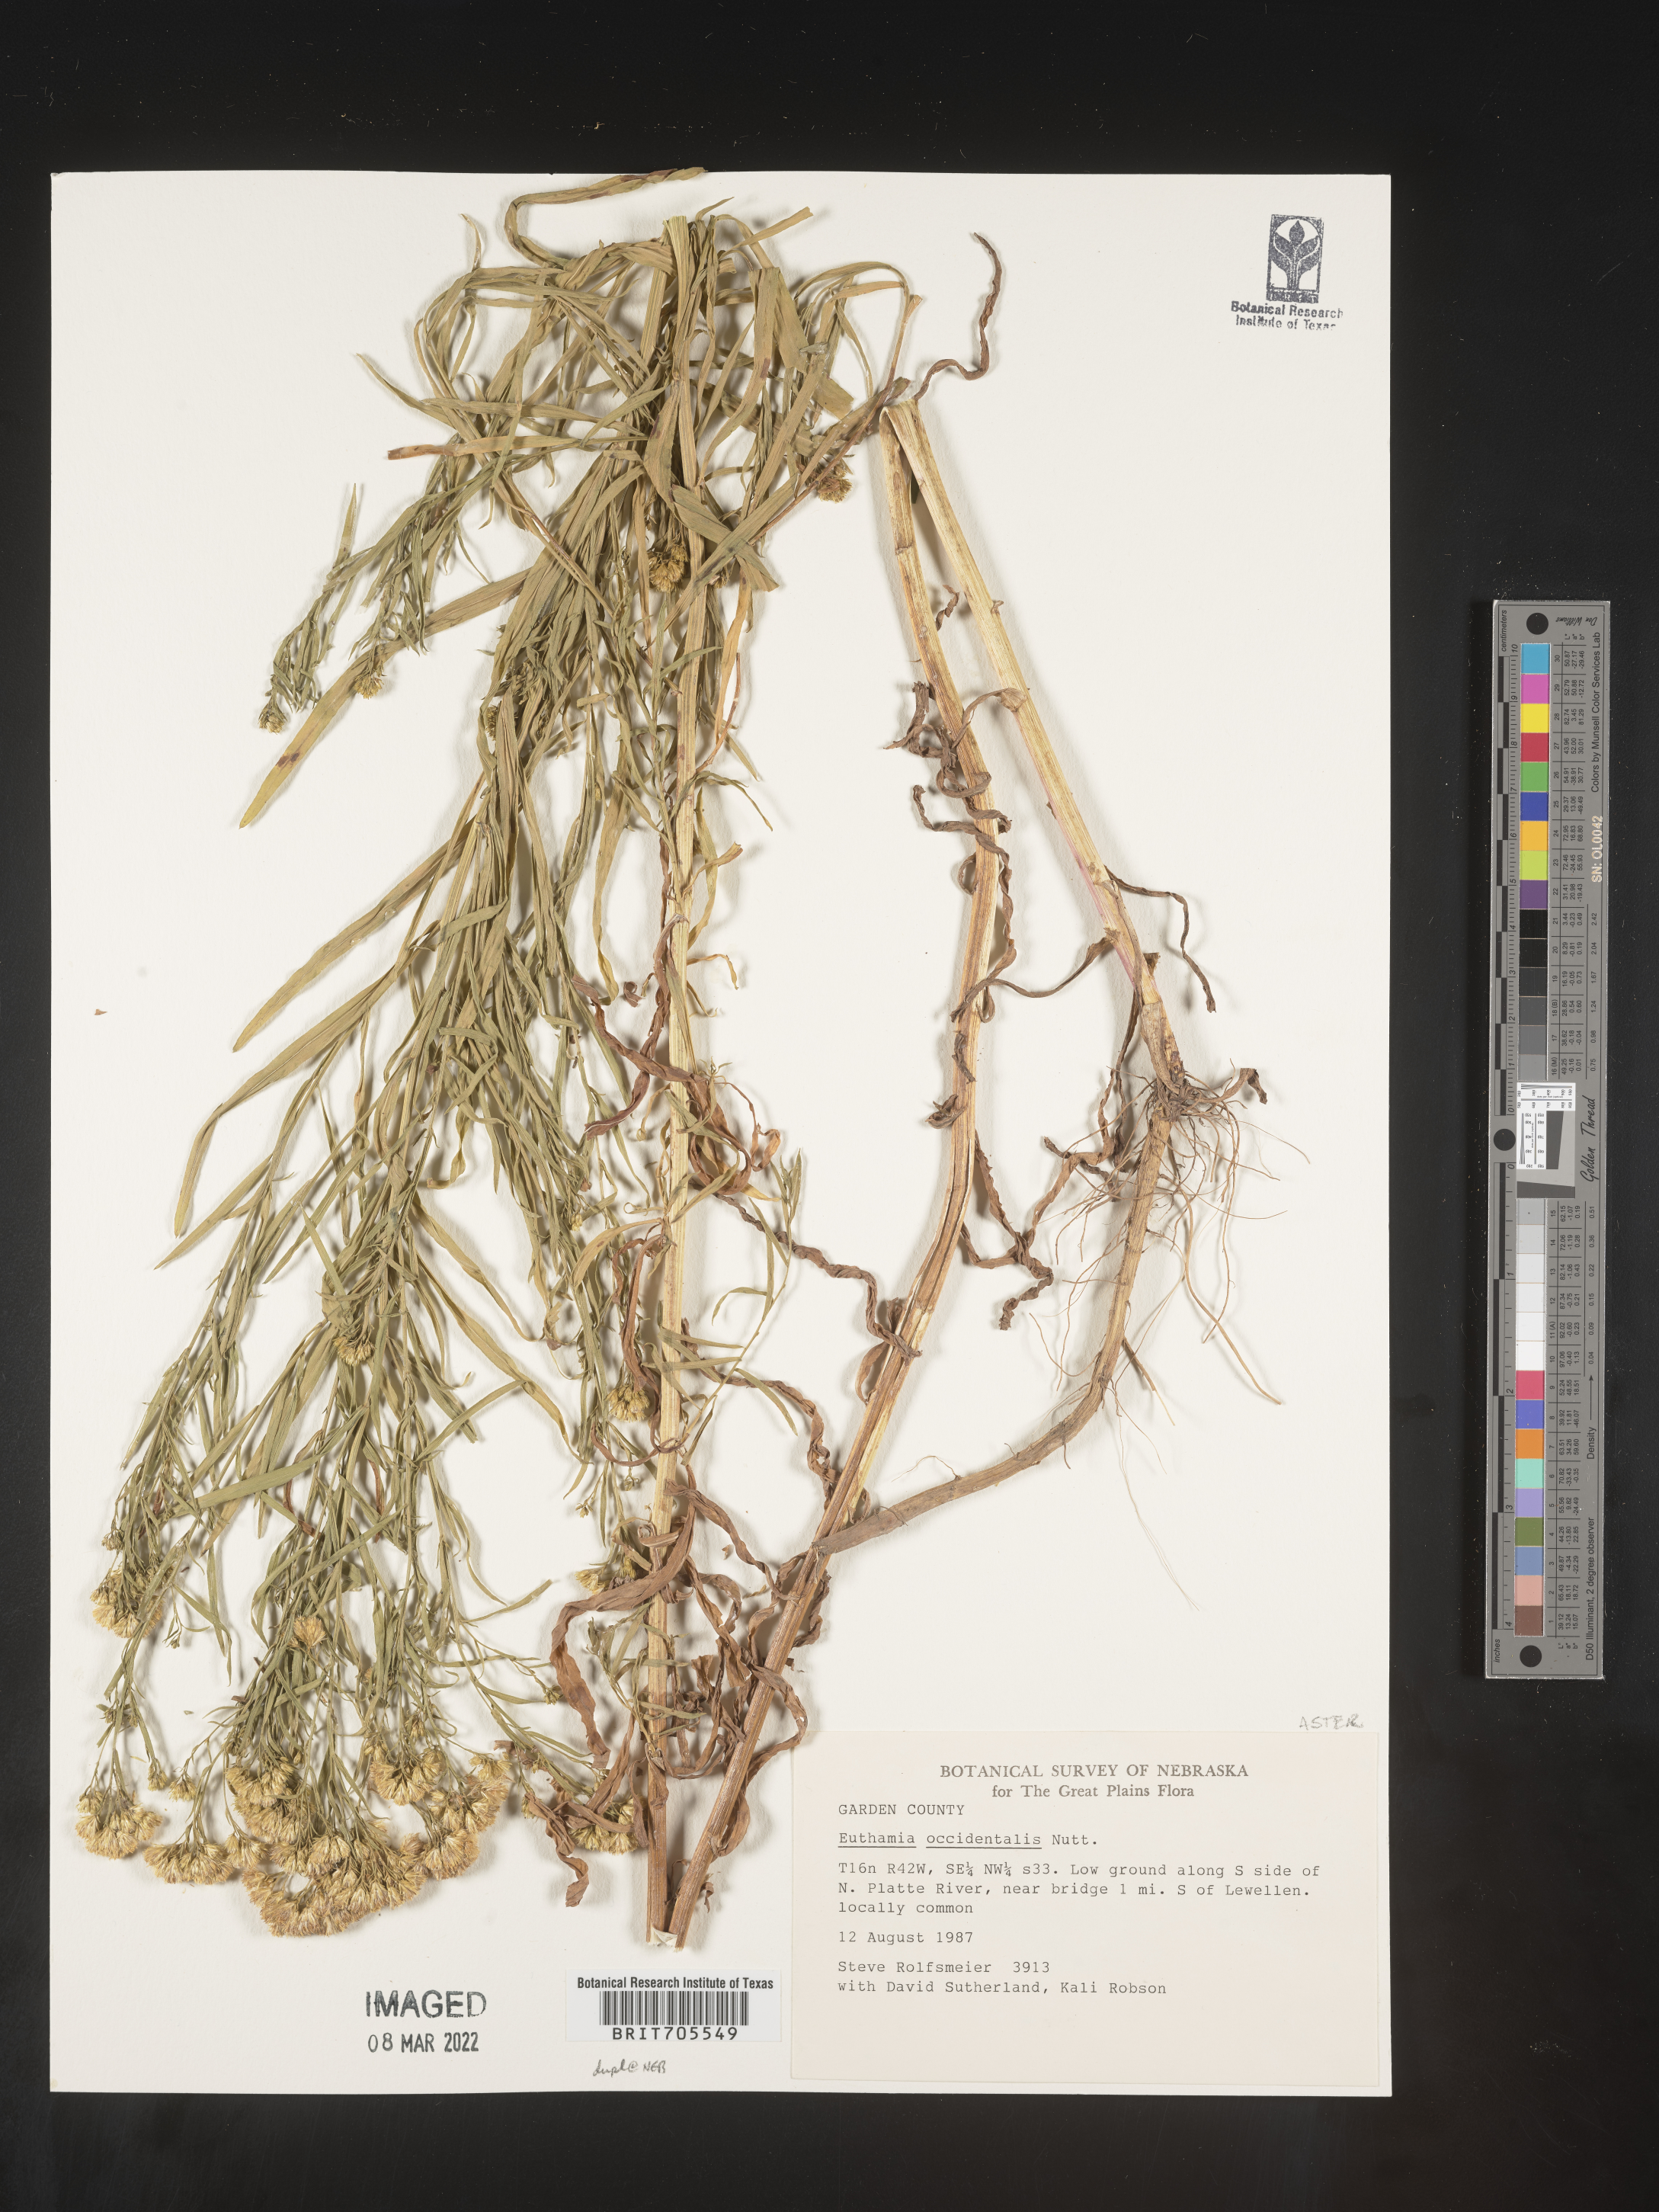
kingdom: Plantae
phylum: Tracheophyta
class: Magnoliopsida
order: Asterales
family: Asteraceae
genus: Euthamia
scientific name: Euthamia occidentalis
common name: Western goldentop
